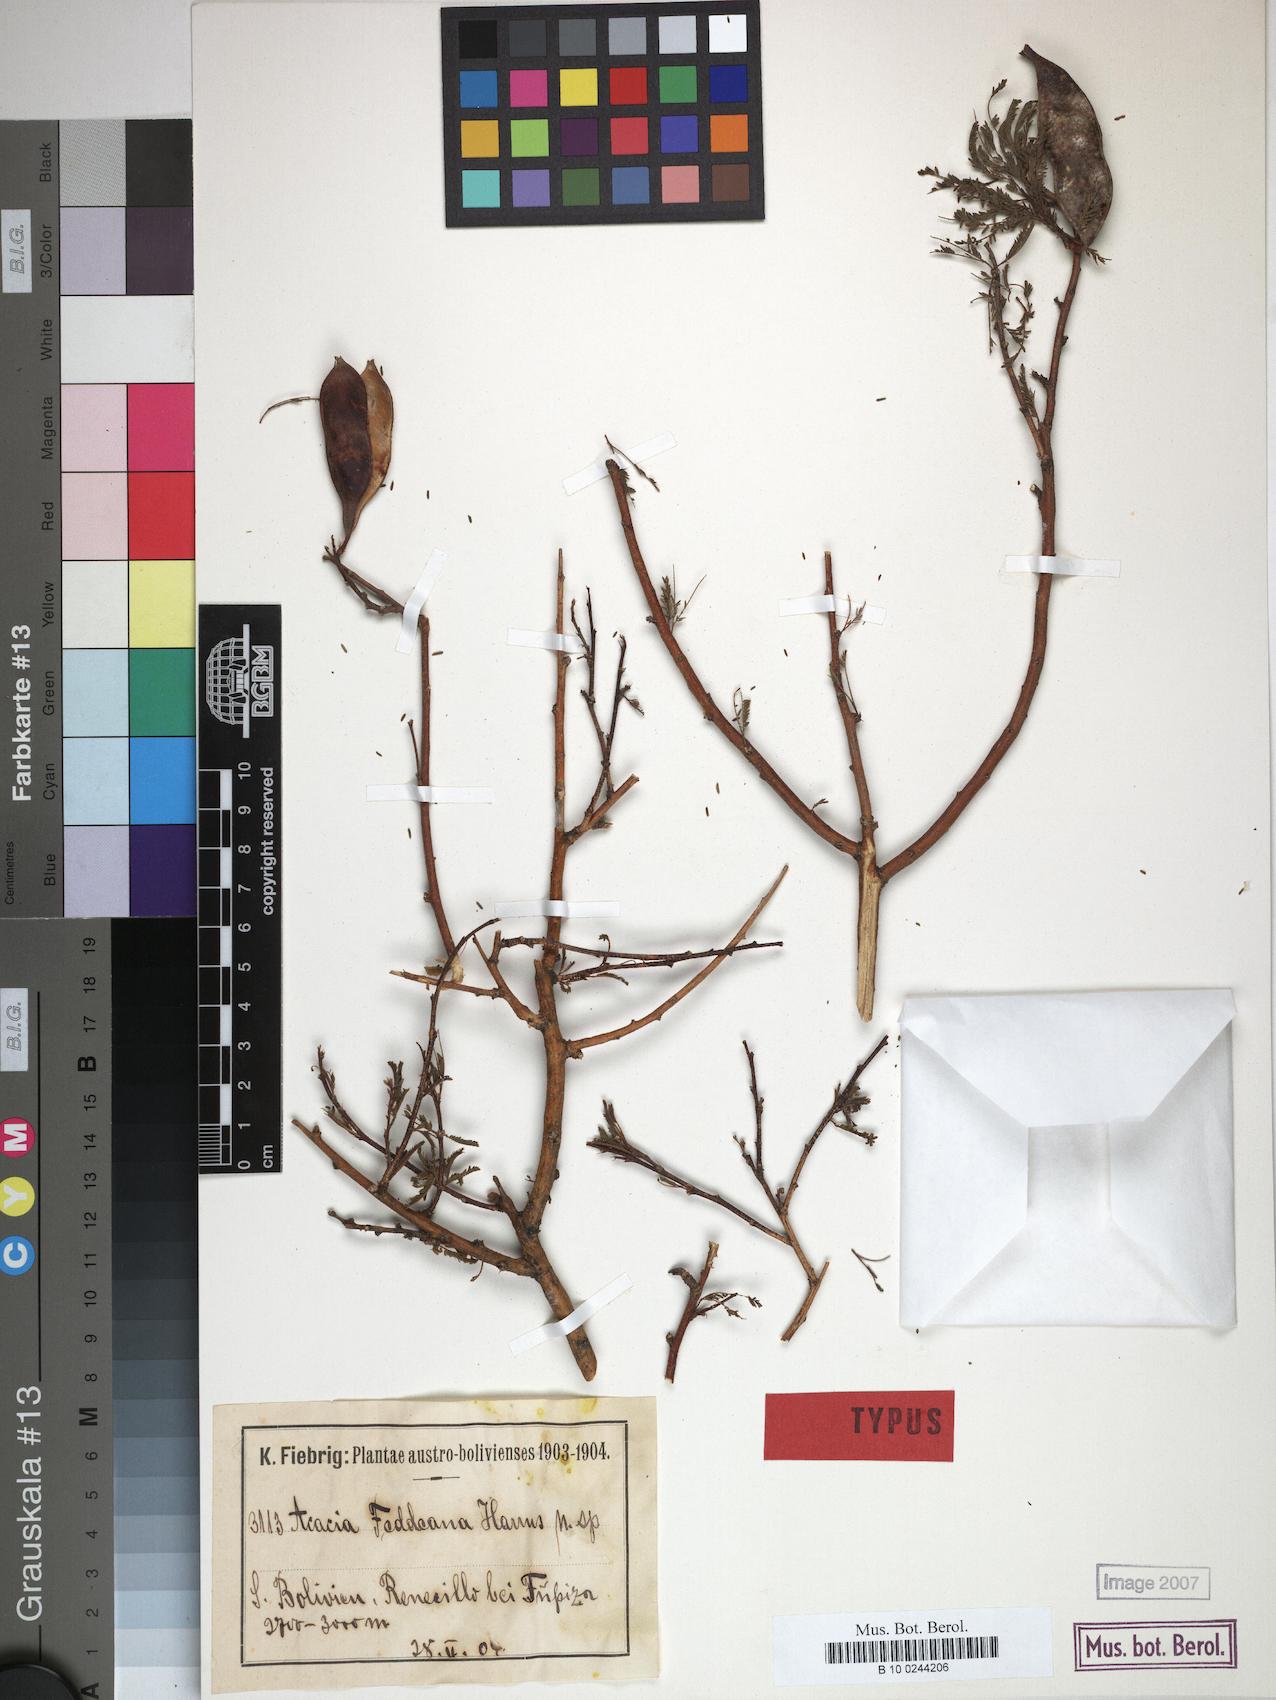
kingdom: Plantae
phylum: Tracheophyta
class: Magnoliopsida
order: Fabales
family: Fabaceae
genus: Pseudosenegalia
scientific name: Pseudosenegalia feddeana
